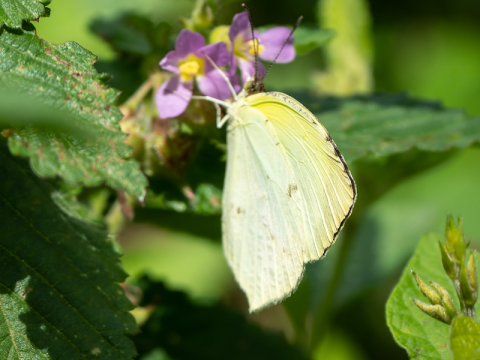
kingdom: Animalia
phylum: Arthropoda
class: Insecta
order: Lepidoptera
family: Pieridae
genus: Pyrisitia
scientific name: Pyrisitia venusta
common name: Pale Yellow
